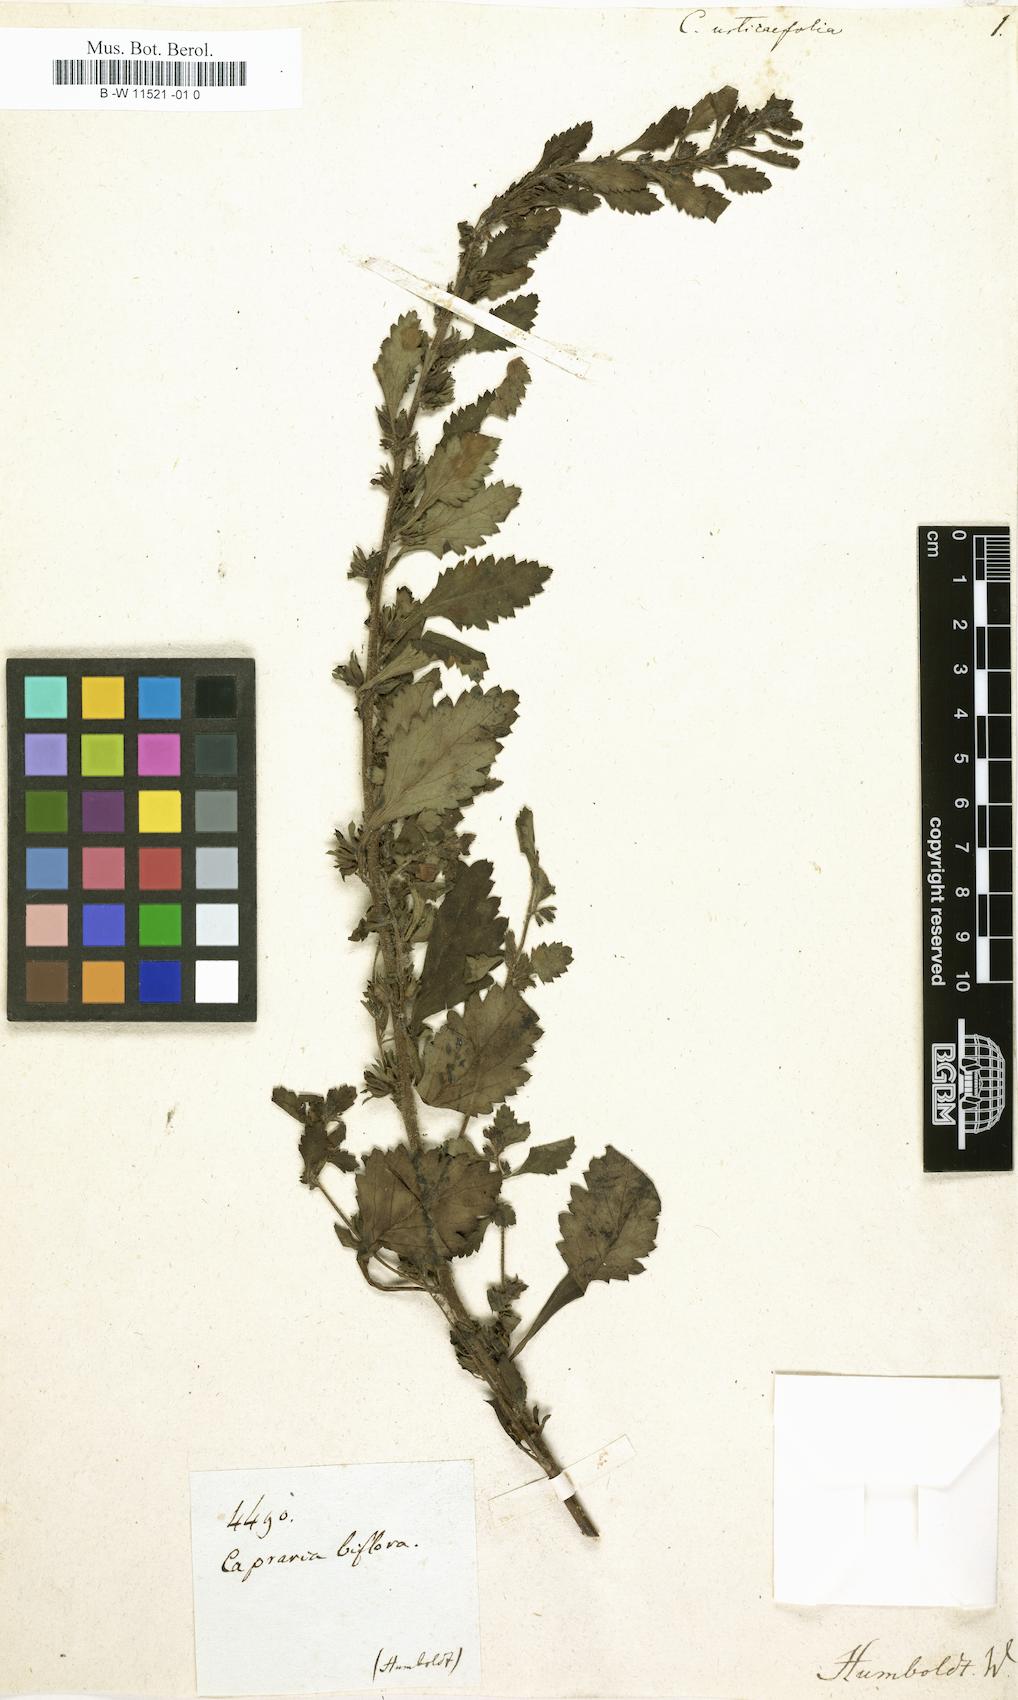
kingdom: Plantae
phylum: Tracheophyta
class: Magnoliopsida
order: Lamiales
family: Scrophulariaceae
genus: Capraria
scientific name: Capraria
